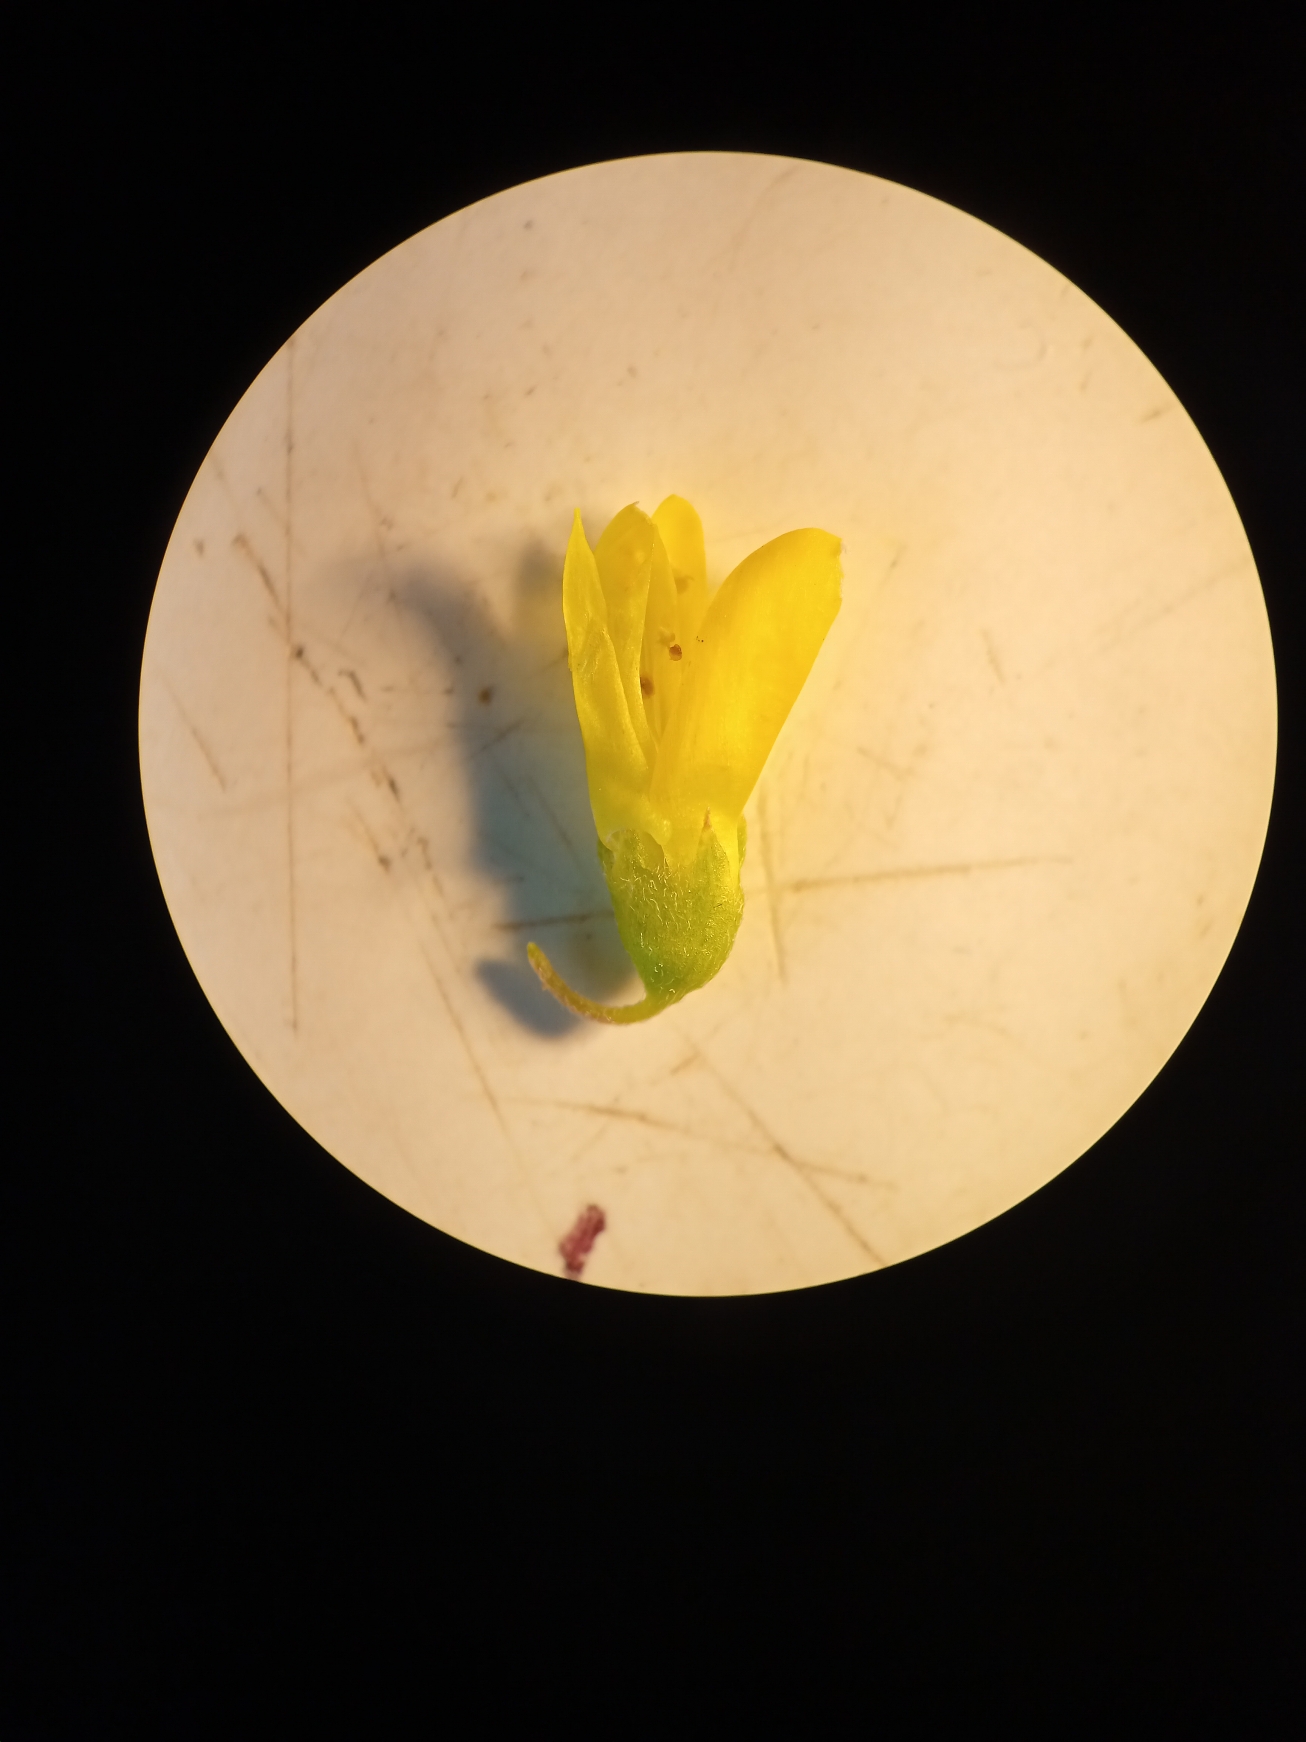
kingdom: Plantae
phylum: Tracheophyta
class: Magnoliopsida
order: Fabales
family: Fabaceae
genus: Melilotus
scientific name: Melilotus altissimus
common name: Høj stenkløver
